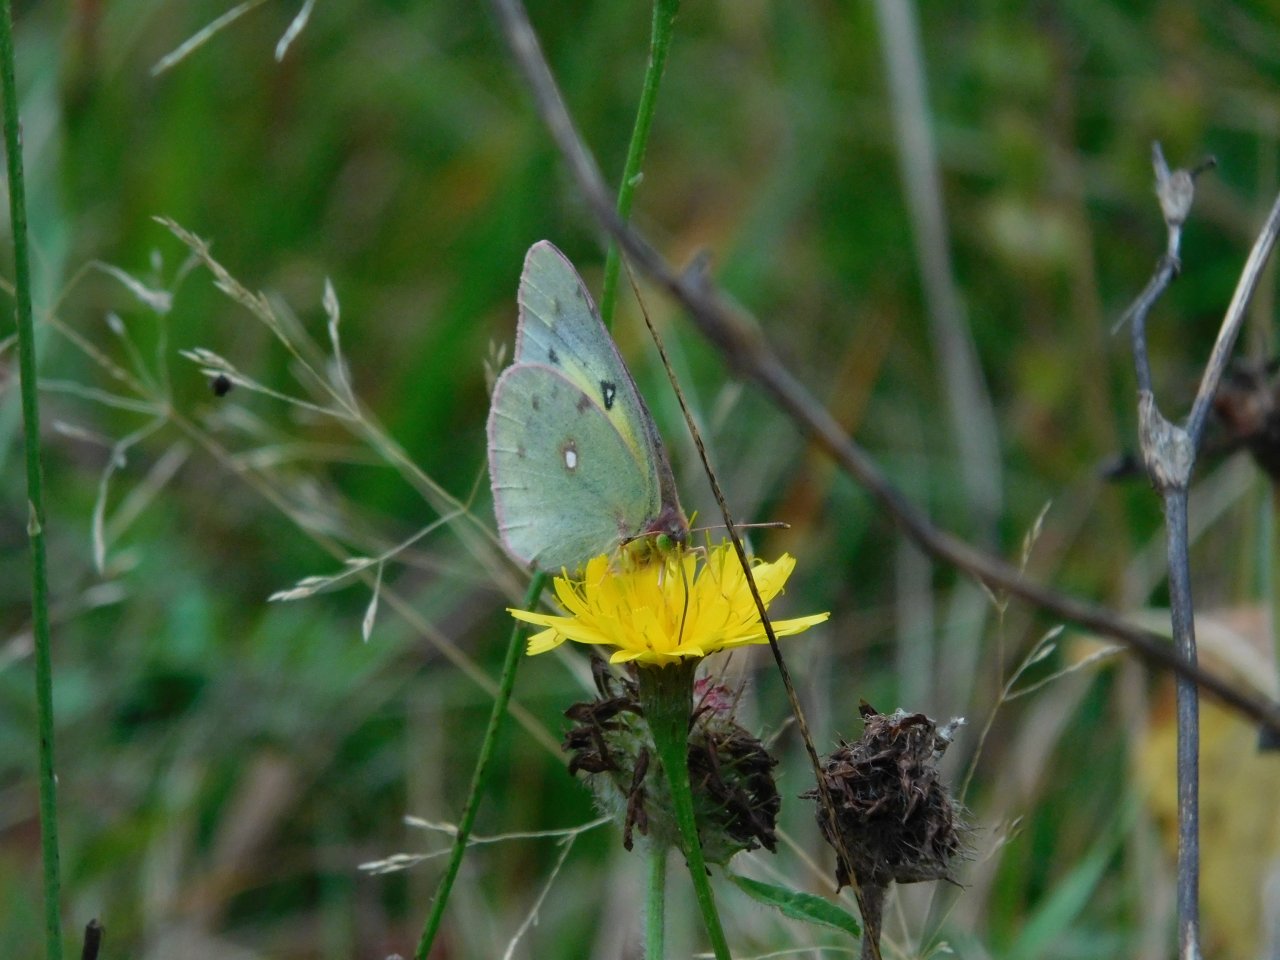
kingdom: Animalia
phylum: Arthropoda
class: Insecta
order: Lepidoptera
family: Pieridae
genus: Colias
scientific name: Colias philodice
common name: Clouded Sulphur
